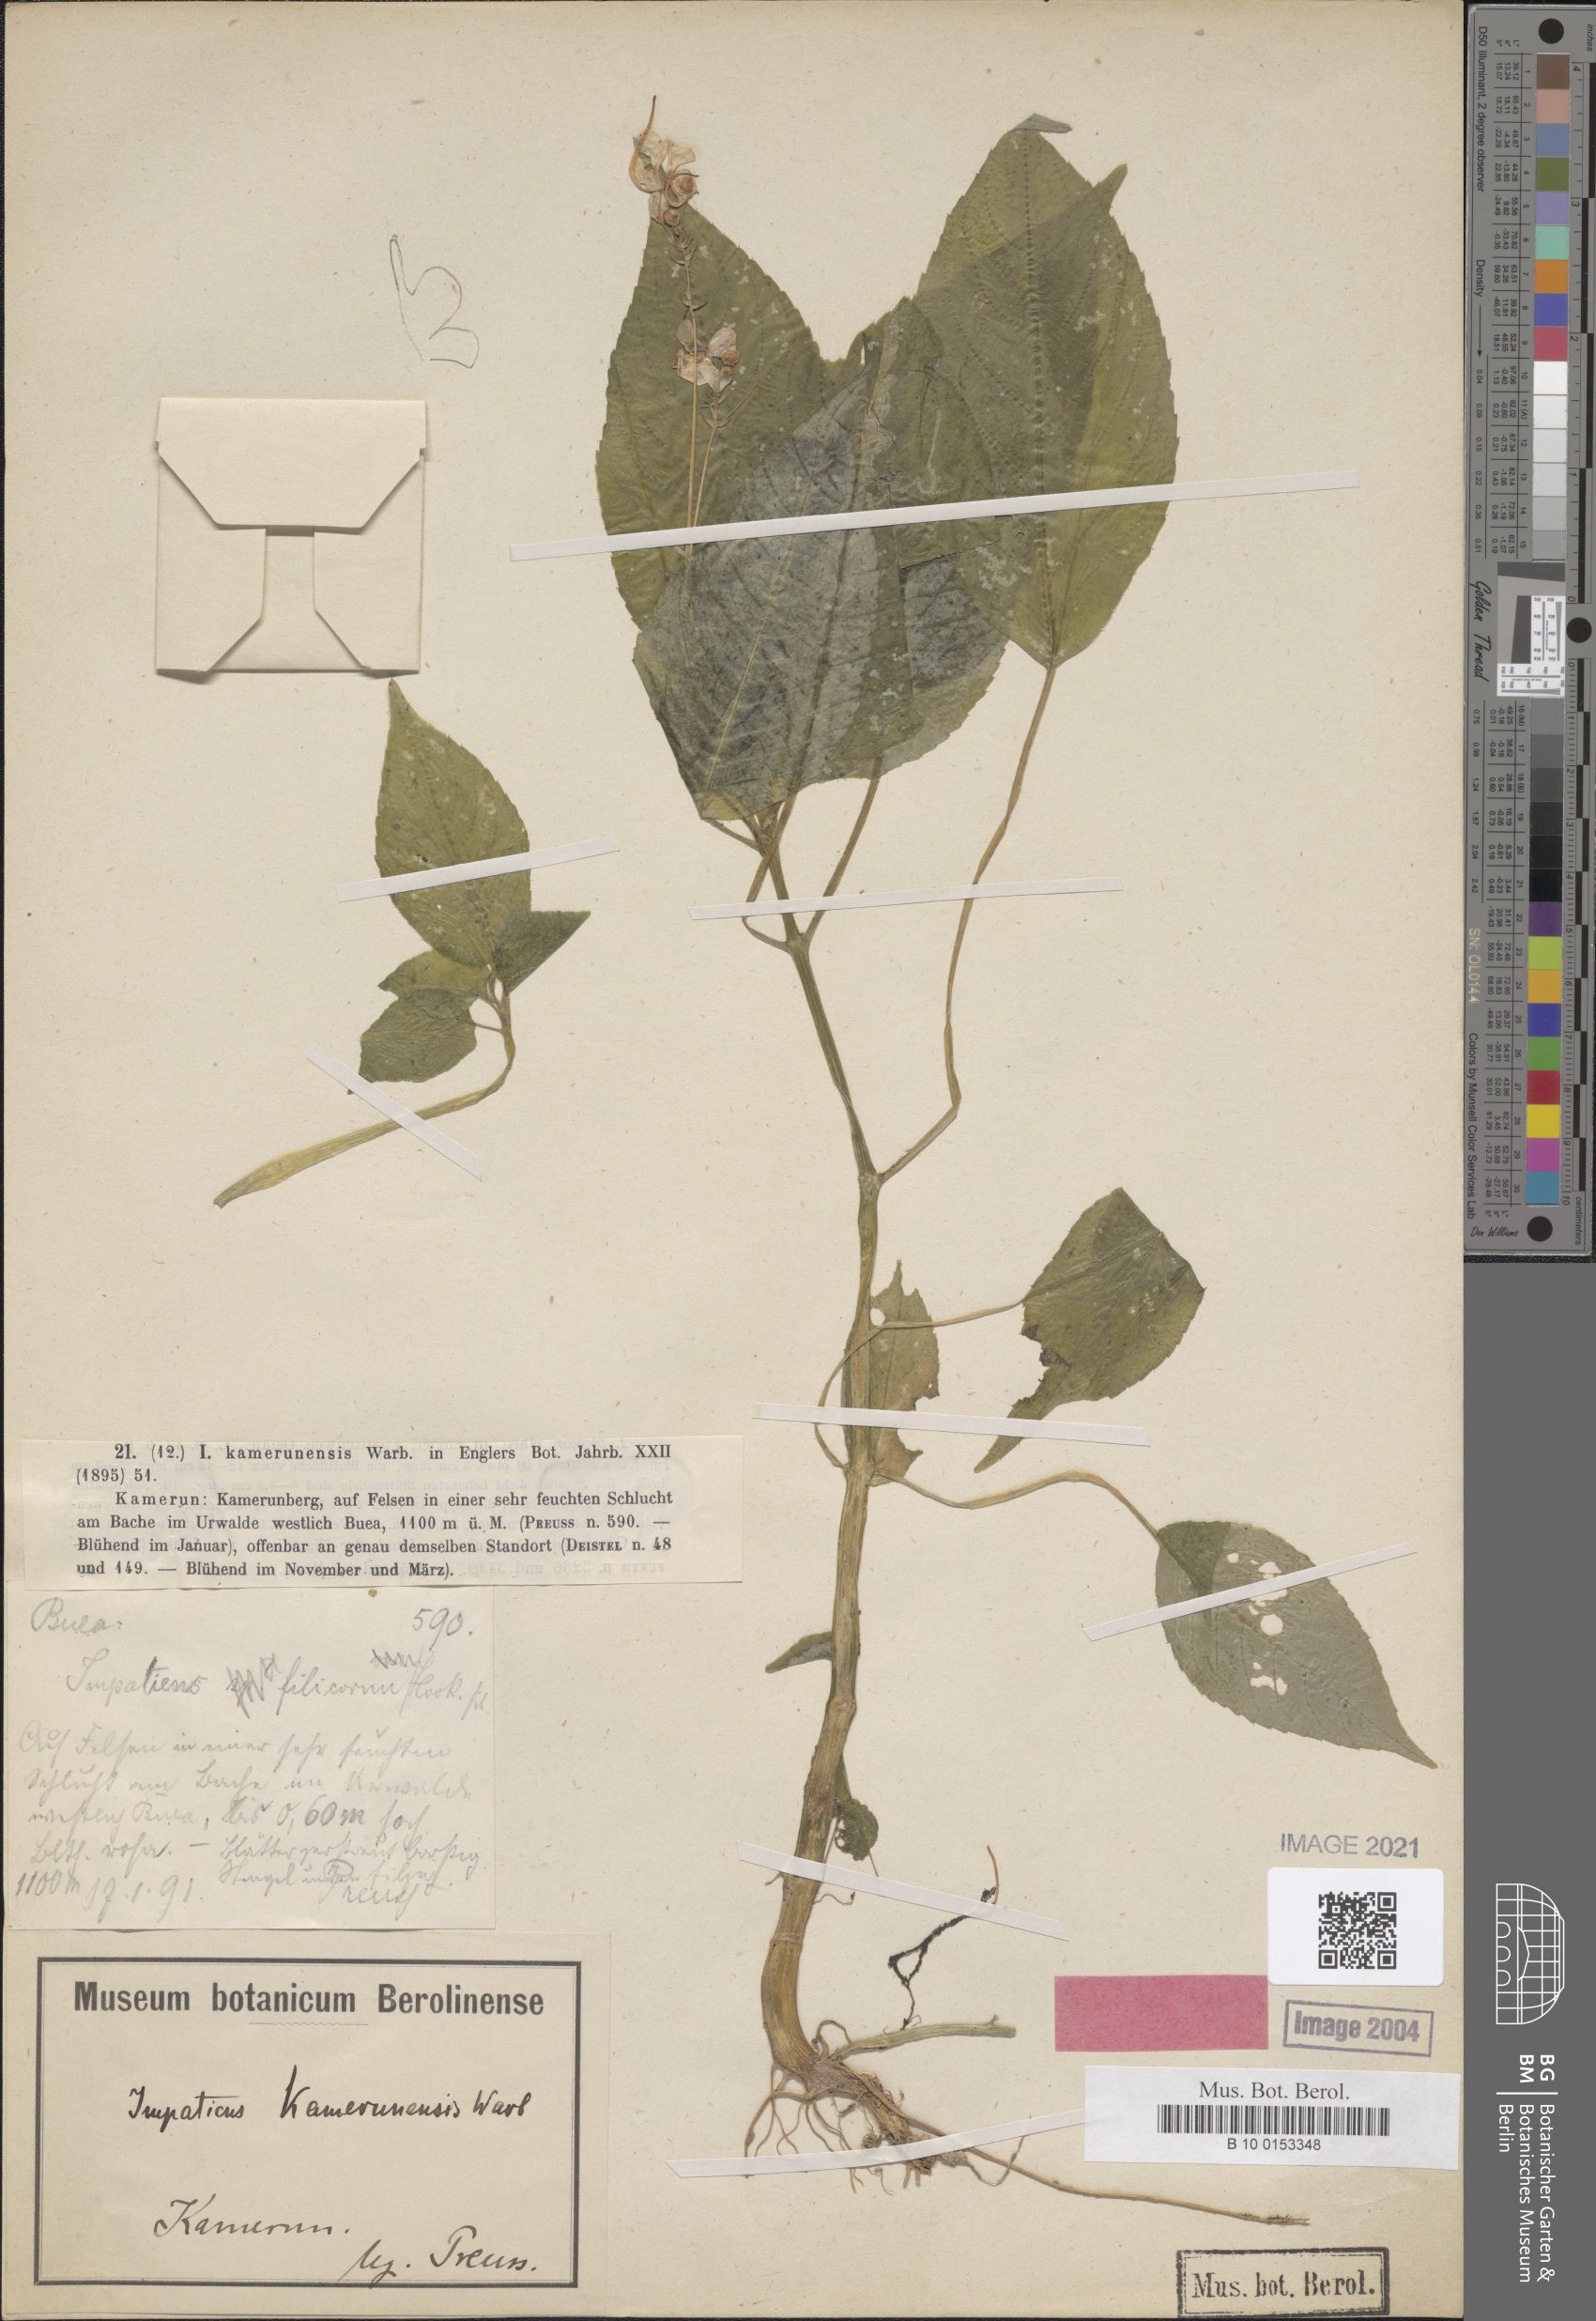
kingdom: Plantae
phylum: Tracheophyta
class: Magnoliopsida
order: Ericales
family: Balsaminaceae
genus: Impatiens
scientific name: Impatiens kamerunensis
